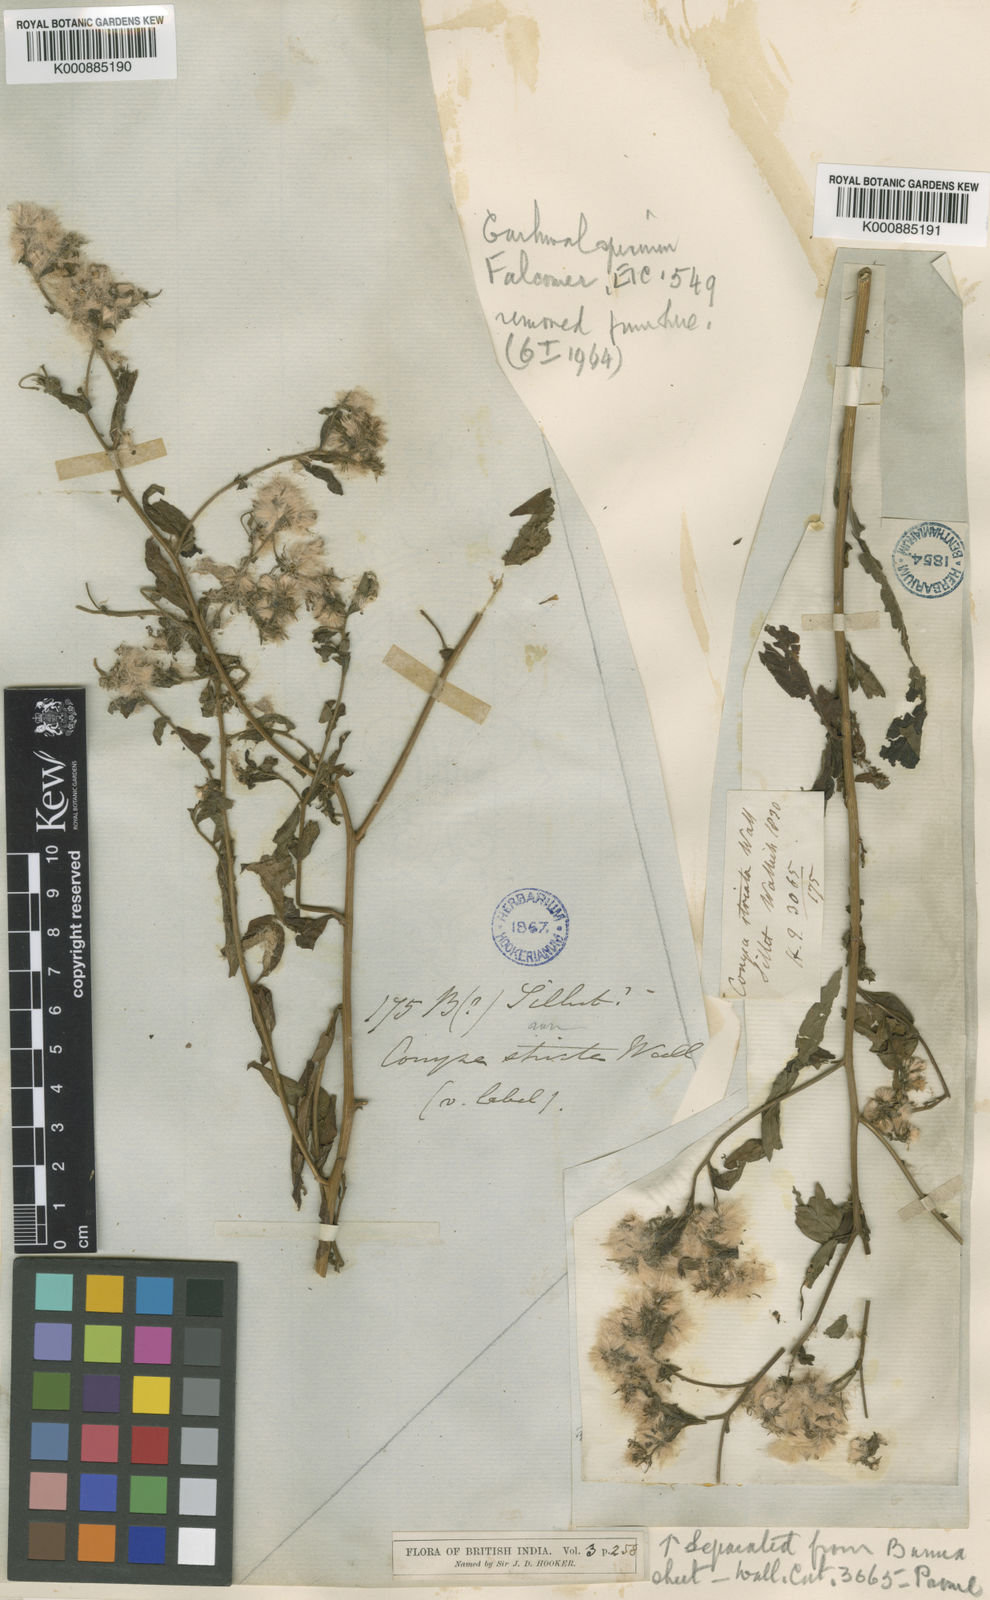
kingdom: Plantae
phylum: Tracheophyta
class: Magnoliopsida
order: Asterales
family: Asteraceae
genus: Eschenbachia
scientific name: Eschenbachia leucantha
